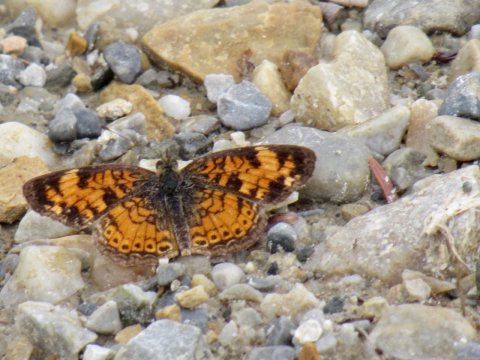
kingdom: Animalia
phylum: Arthropoda
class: Insecta
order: Lepidoptera
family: Nymphalidae
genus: Phyciodes
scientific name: Phyciodes tharos
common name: Pearl Crescent
